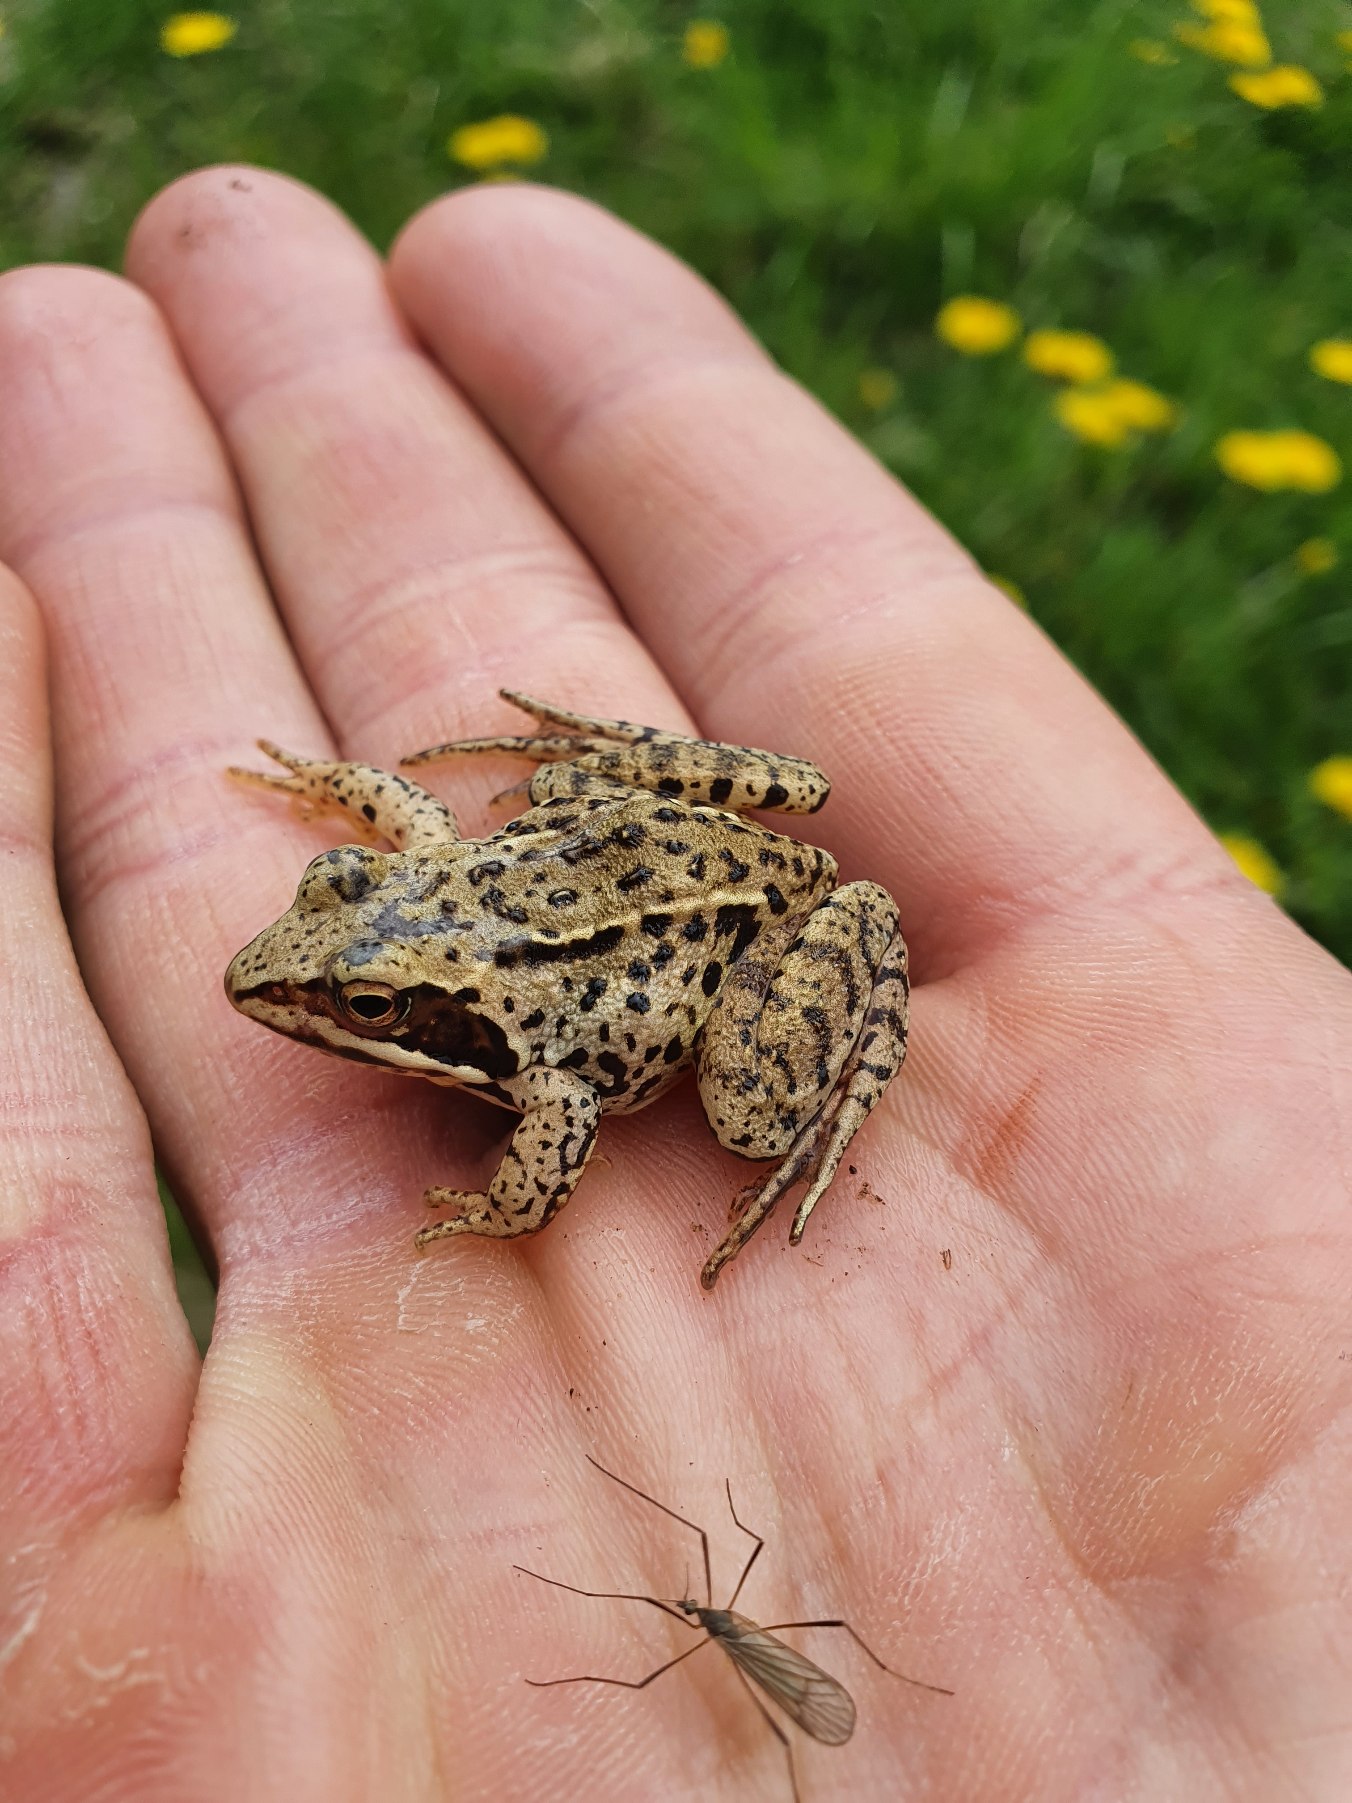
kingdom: Animalia
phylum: Chordata
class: Amphibia
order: Anura
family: Ranidae
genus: Rana
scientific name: Rana arvalis
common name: Spidssnudet frø
